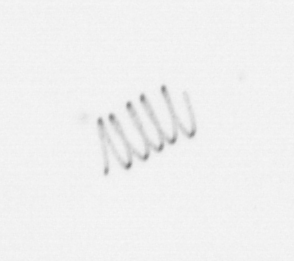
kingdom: Chromista
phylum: Ochrophyta
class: Bacillariophyceae
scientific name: Bacillariophyceae
